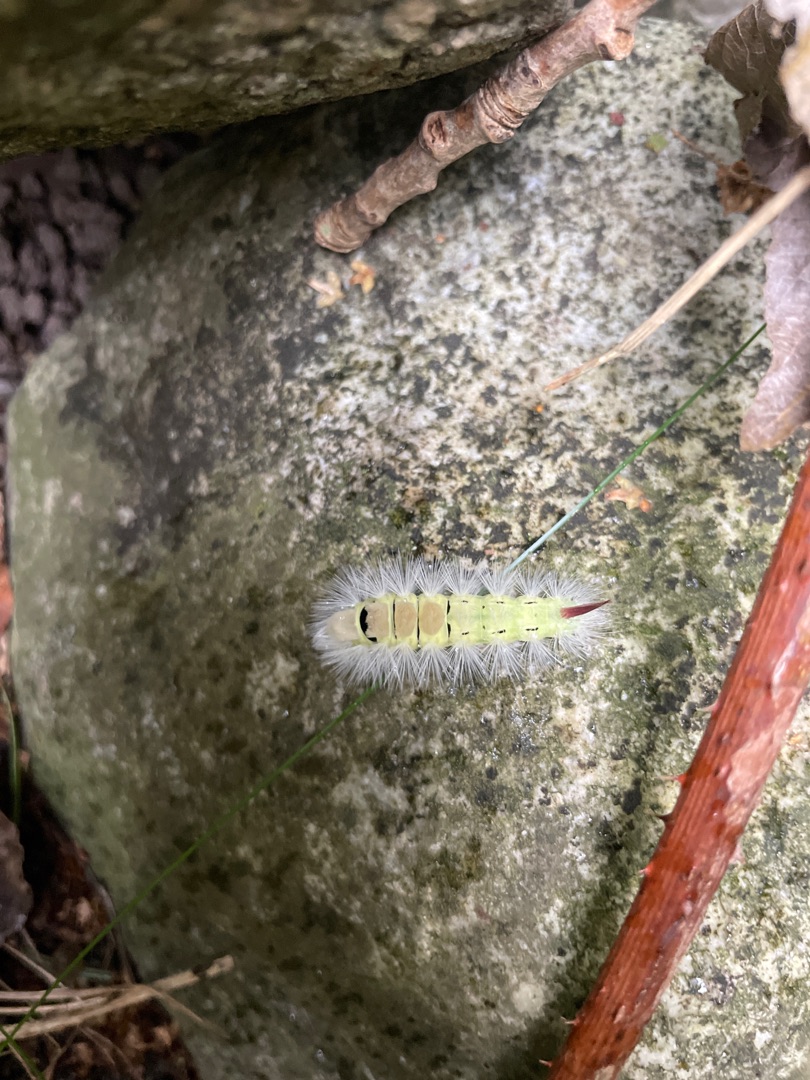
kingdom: Animalia
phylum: Arthropoda
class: Insecta
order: Lepidoptera
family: Erebidae
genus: Calliteara
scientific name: Calliteara pudibunda
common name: Bøgenonne
